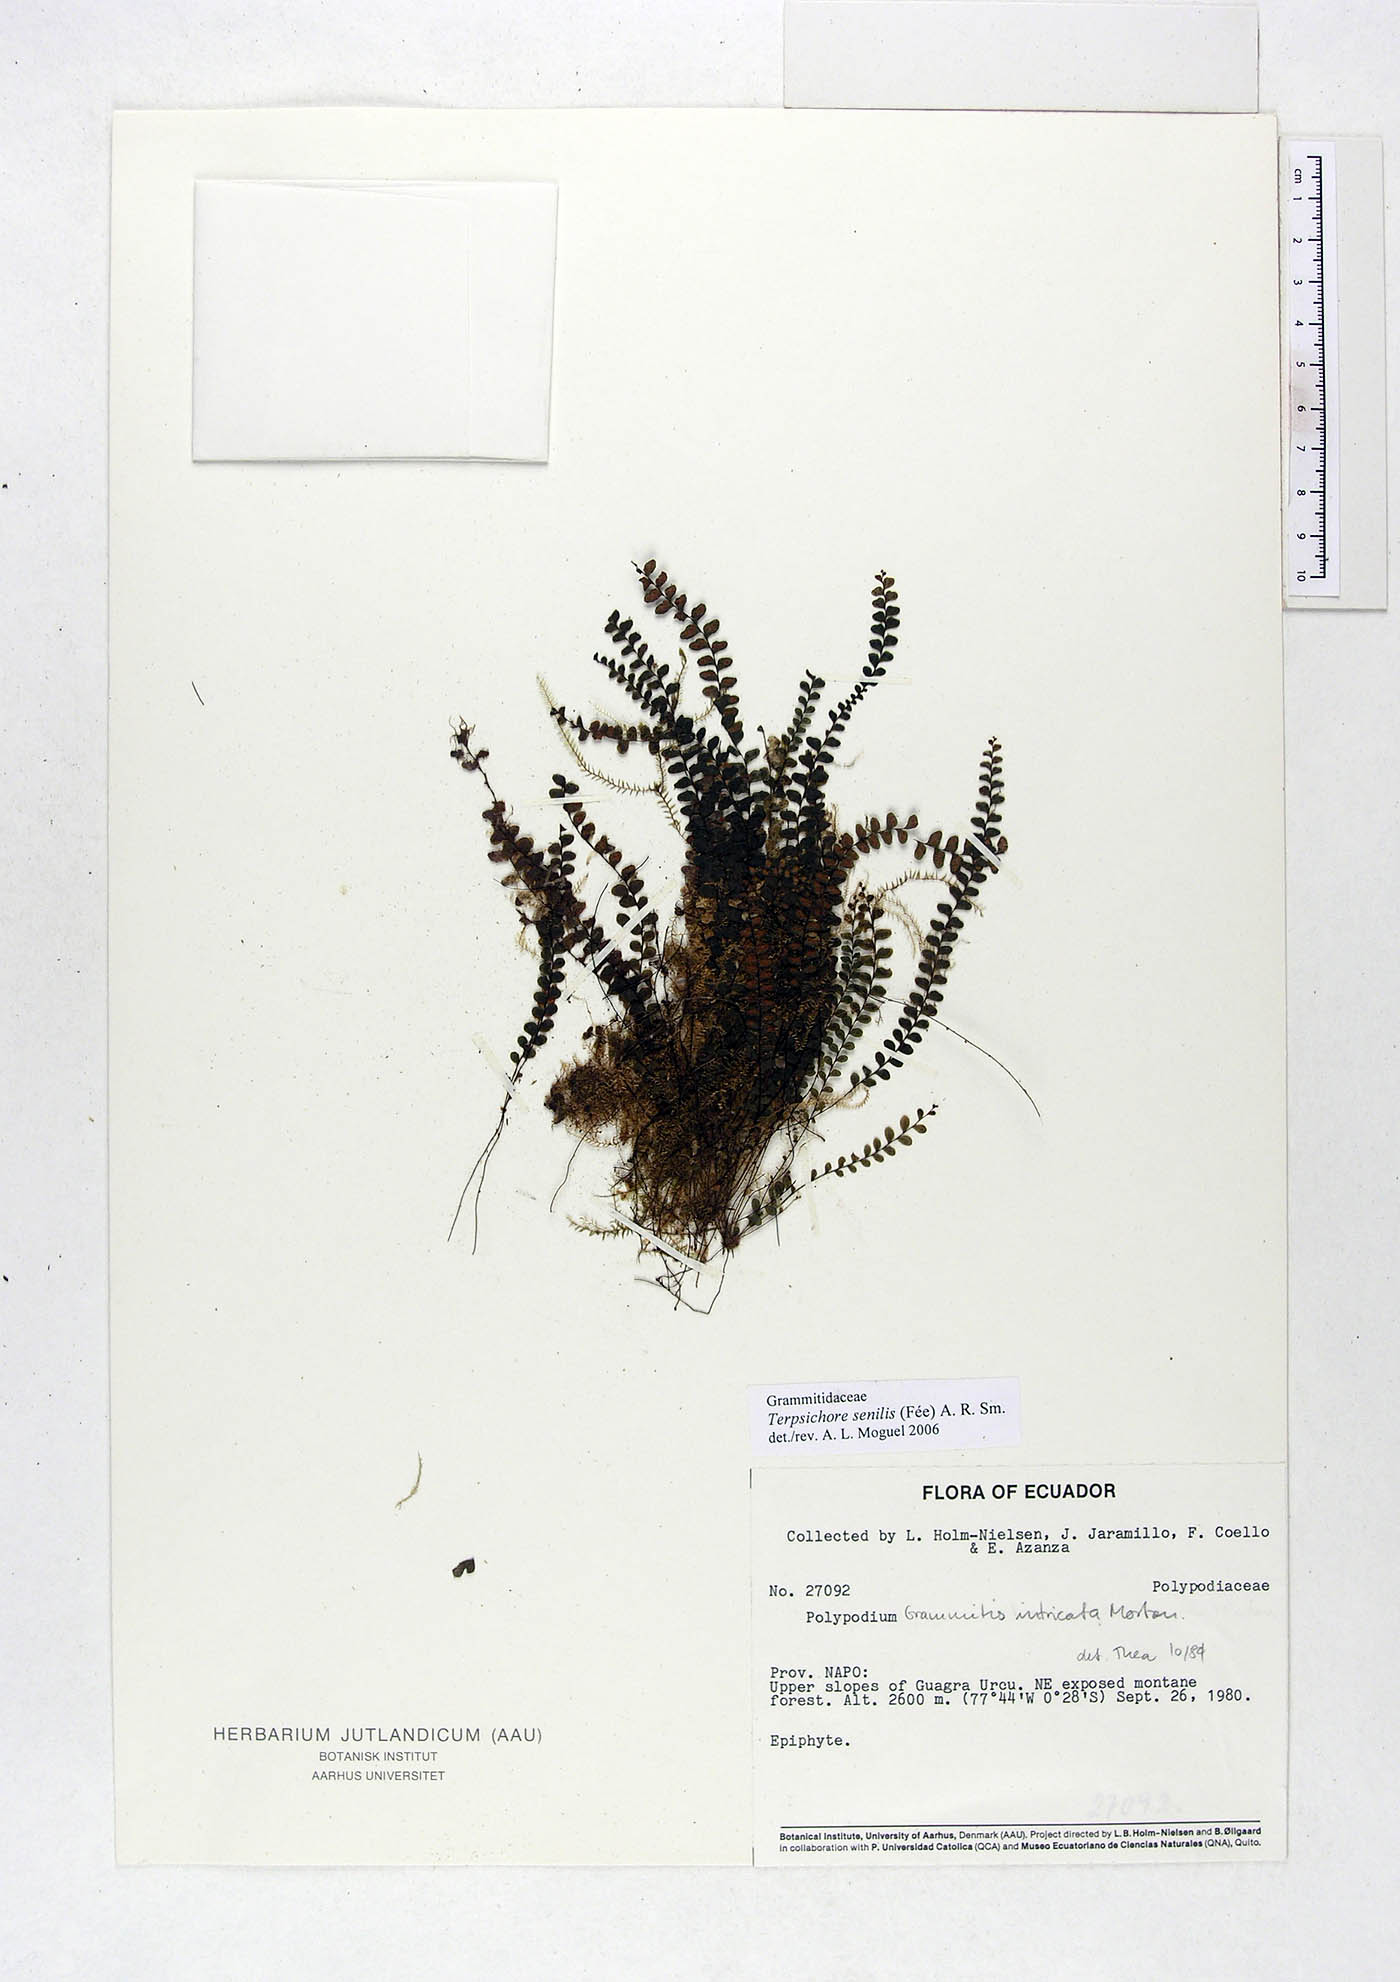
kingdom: Plantae
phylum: Tracheophyta
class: Polypodiopsida
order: Polypodiales
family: Polypodiaceae
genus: Alansmia
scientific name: Alansmia senilis
